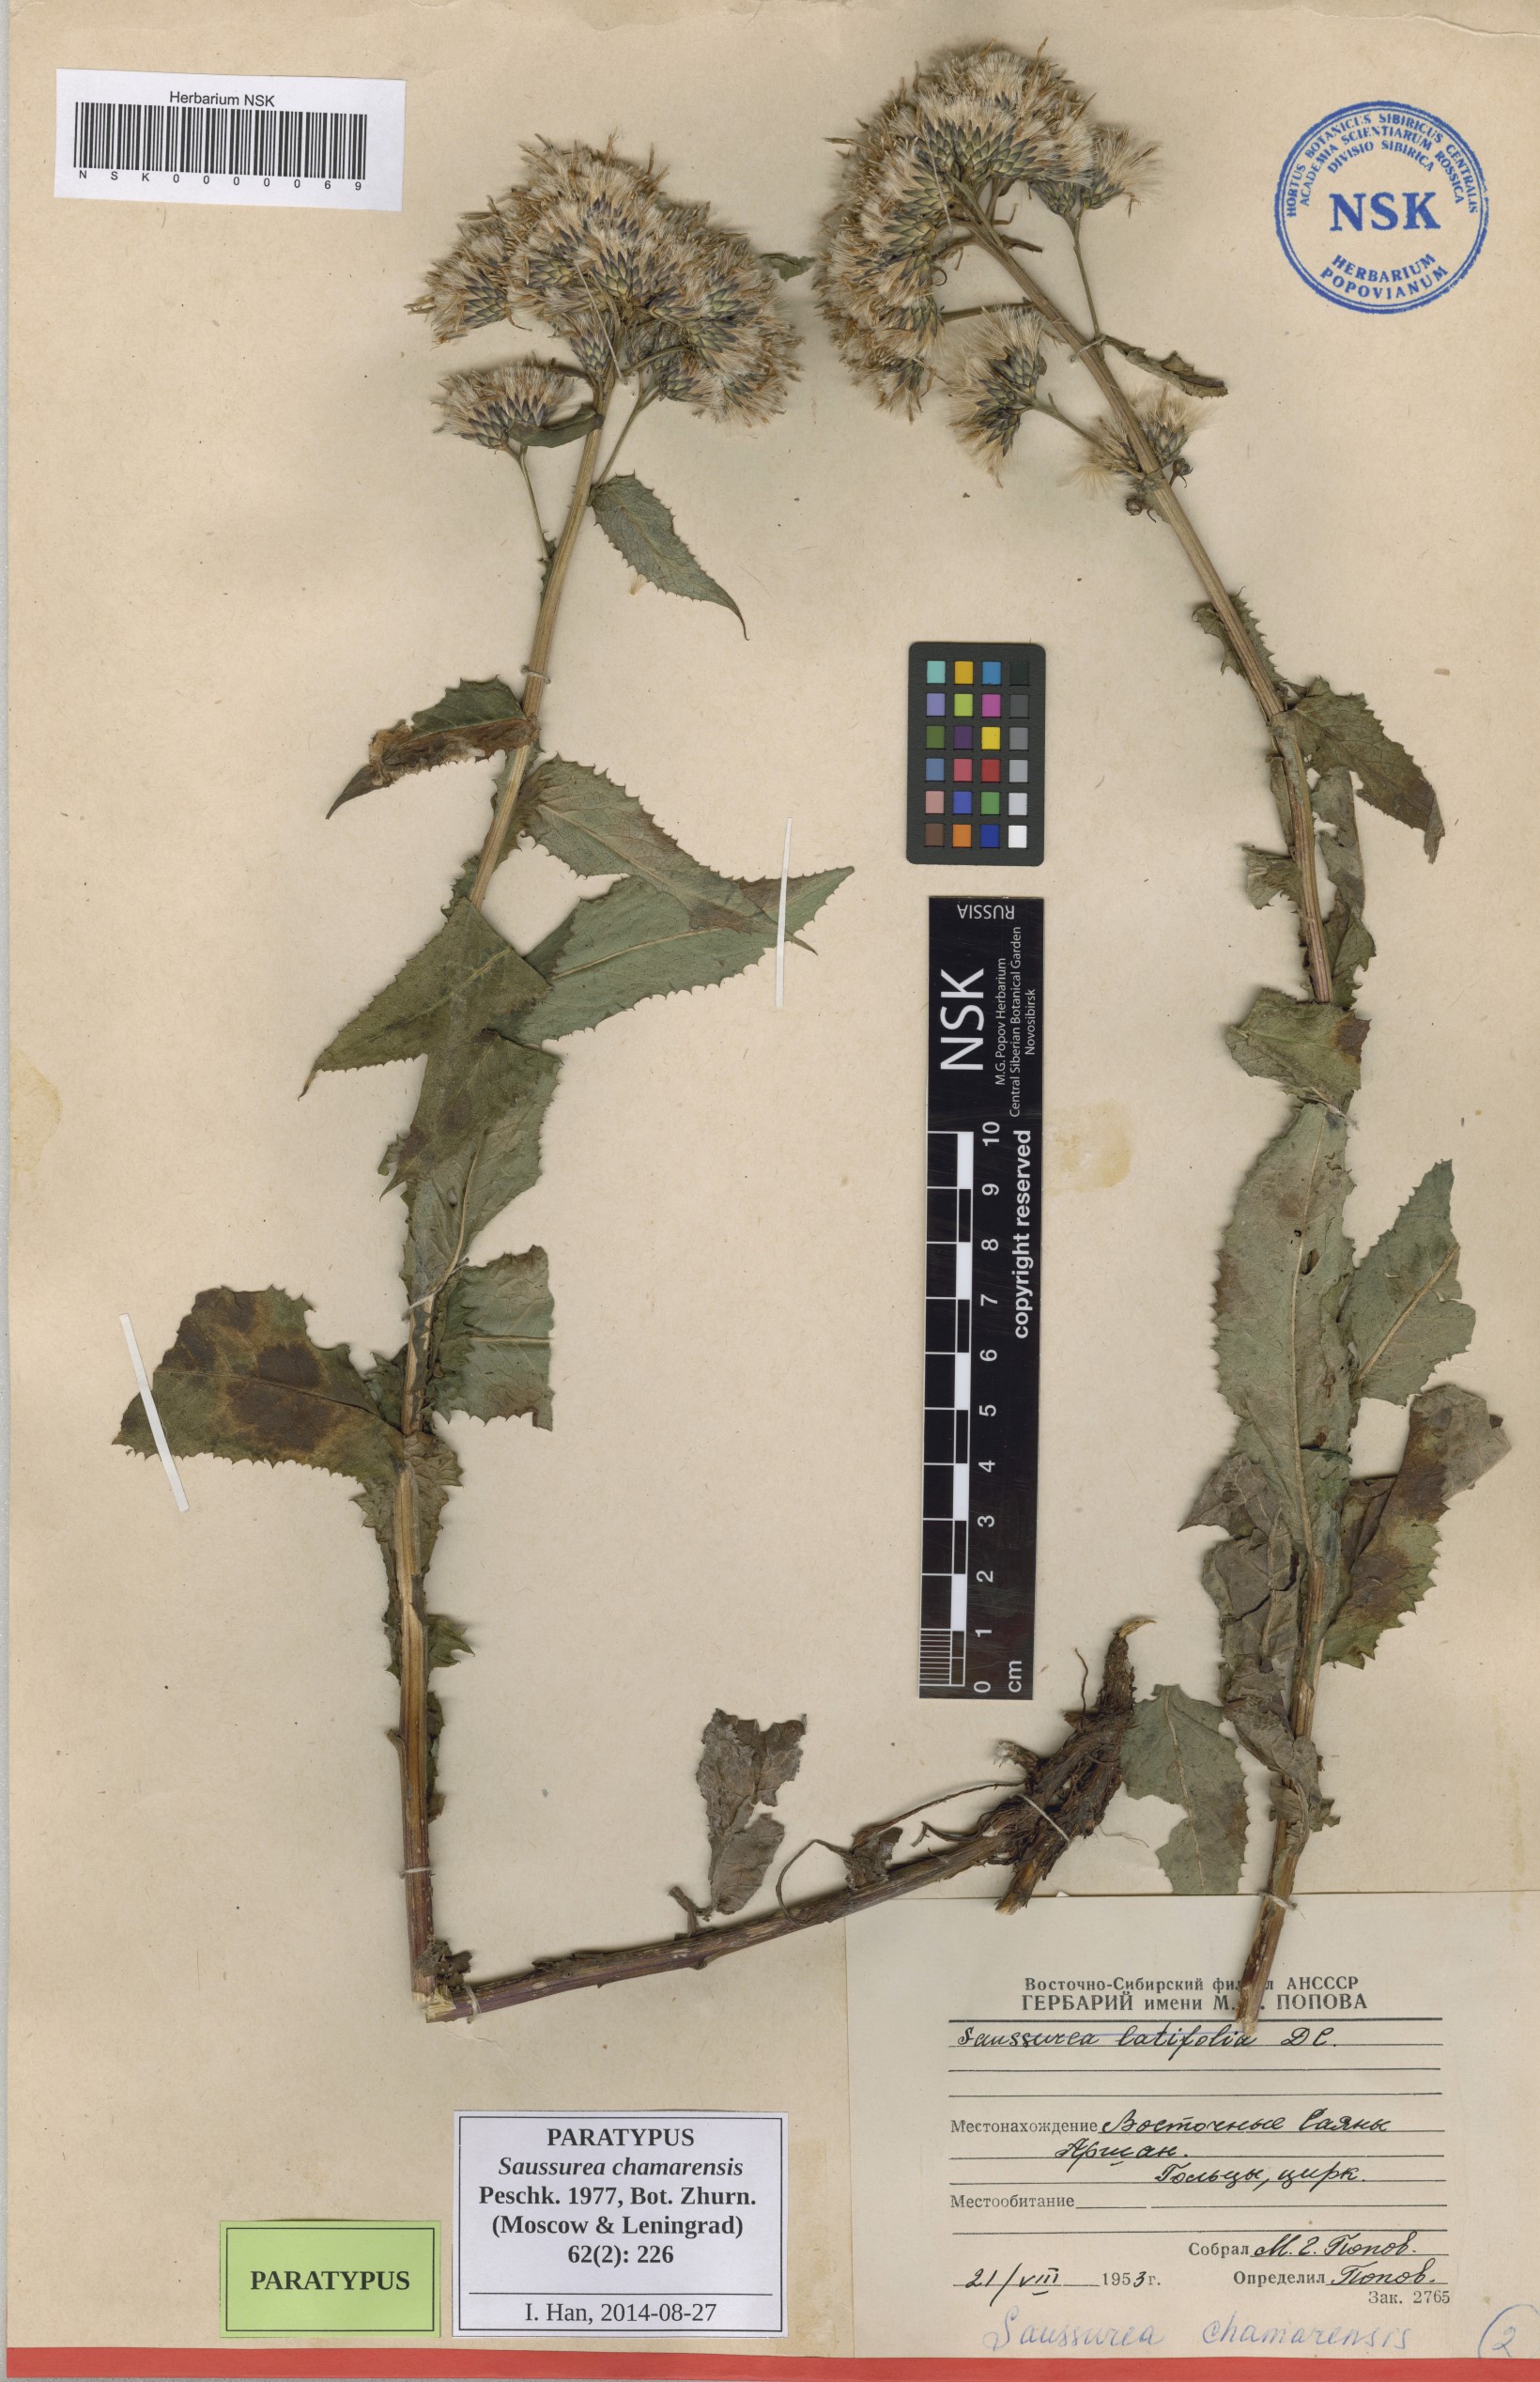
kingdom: Plantae
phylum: Tracheophyta
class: Magnoliopsida
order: Asterales
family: Asteraceae
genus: Saussurea
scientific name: Saussurea chamarensis
